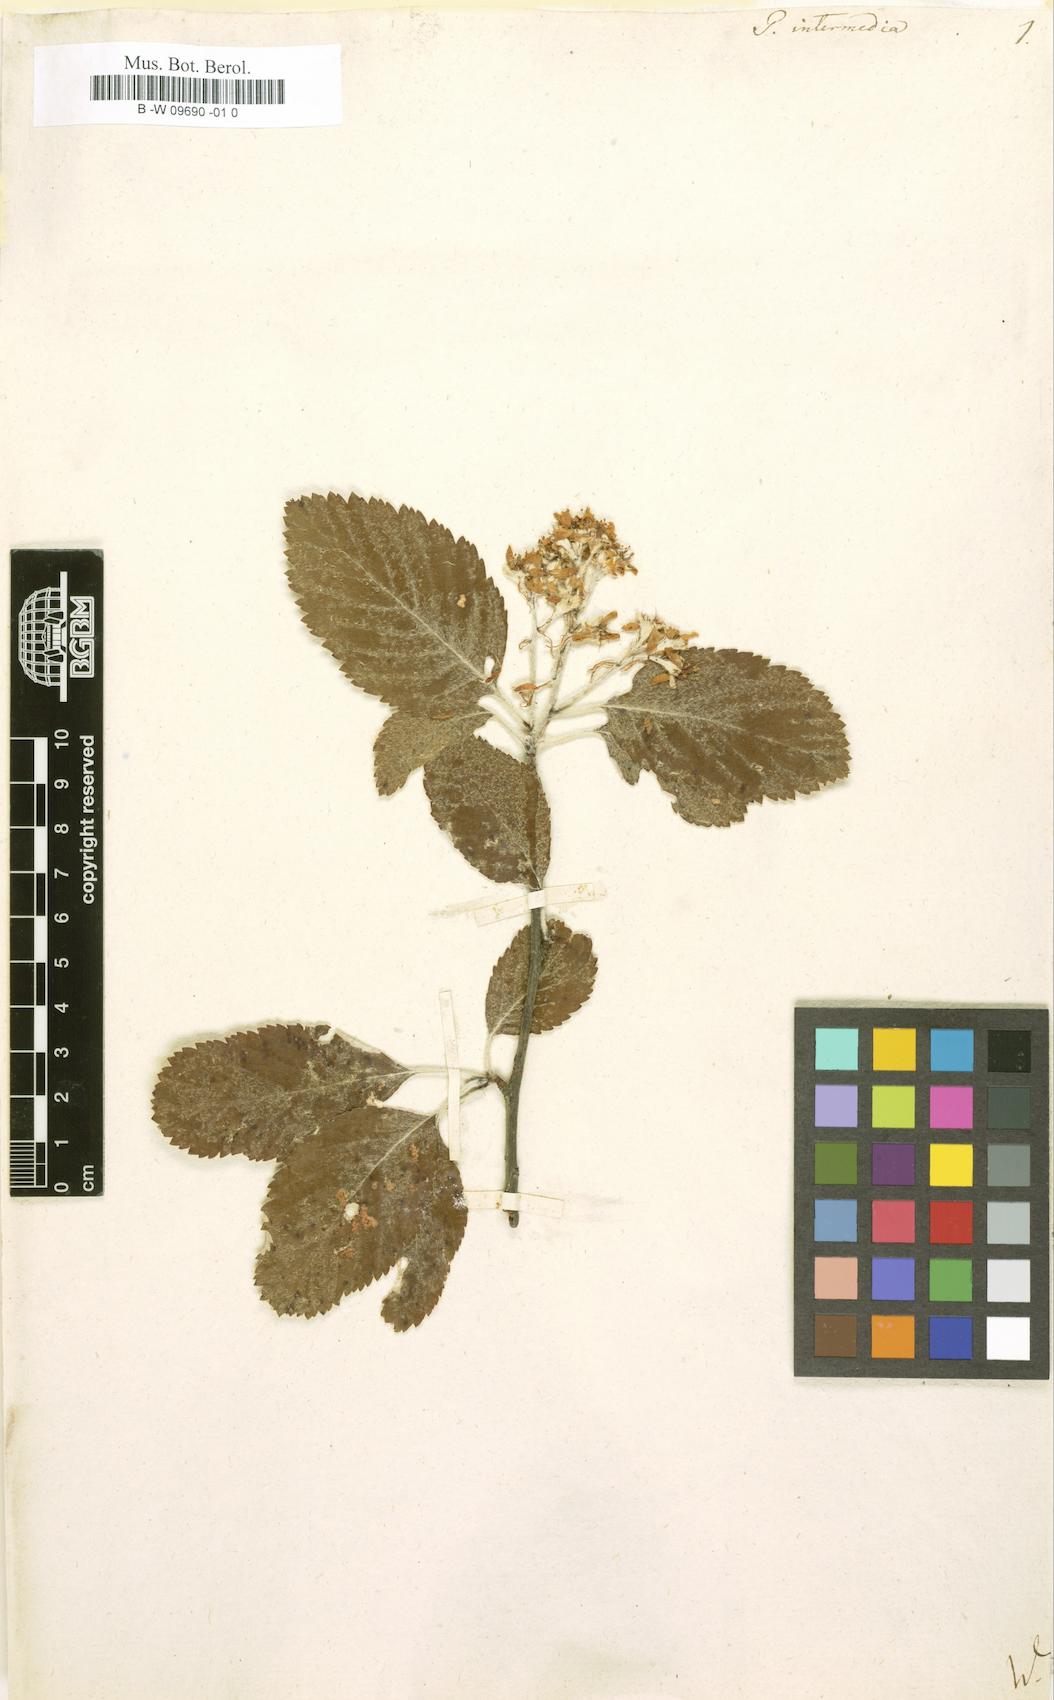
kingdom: Plantae
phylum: Tracheophyta
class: Magnoliopsida
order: Rosales
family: Rosaceae
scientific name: Rosaceae
